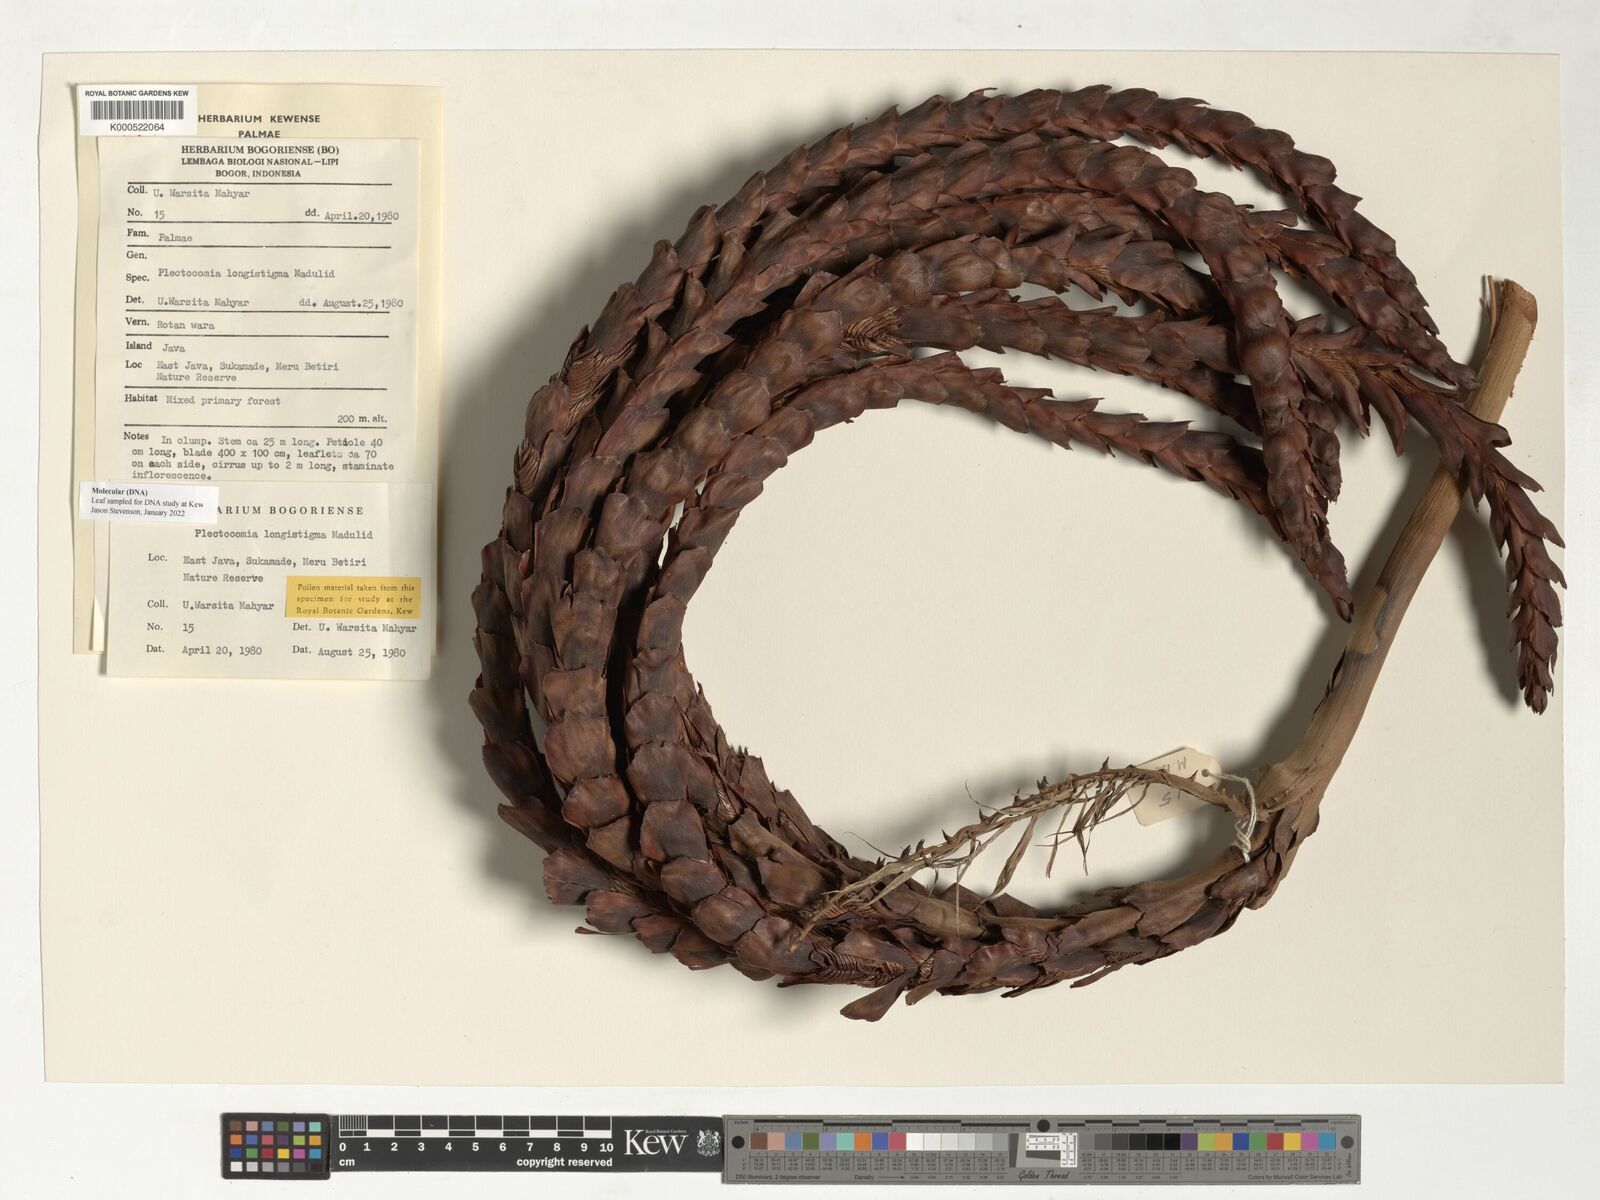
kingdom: Plantae
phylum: Tracheophyta
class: Liliopsida
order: Arecales
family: Arecaceae
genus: Plectocomia
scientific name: Plectocomia longistigma
